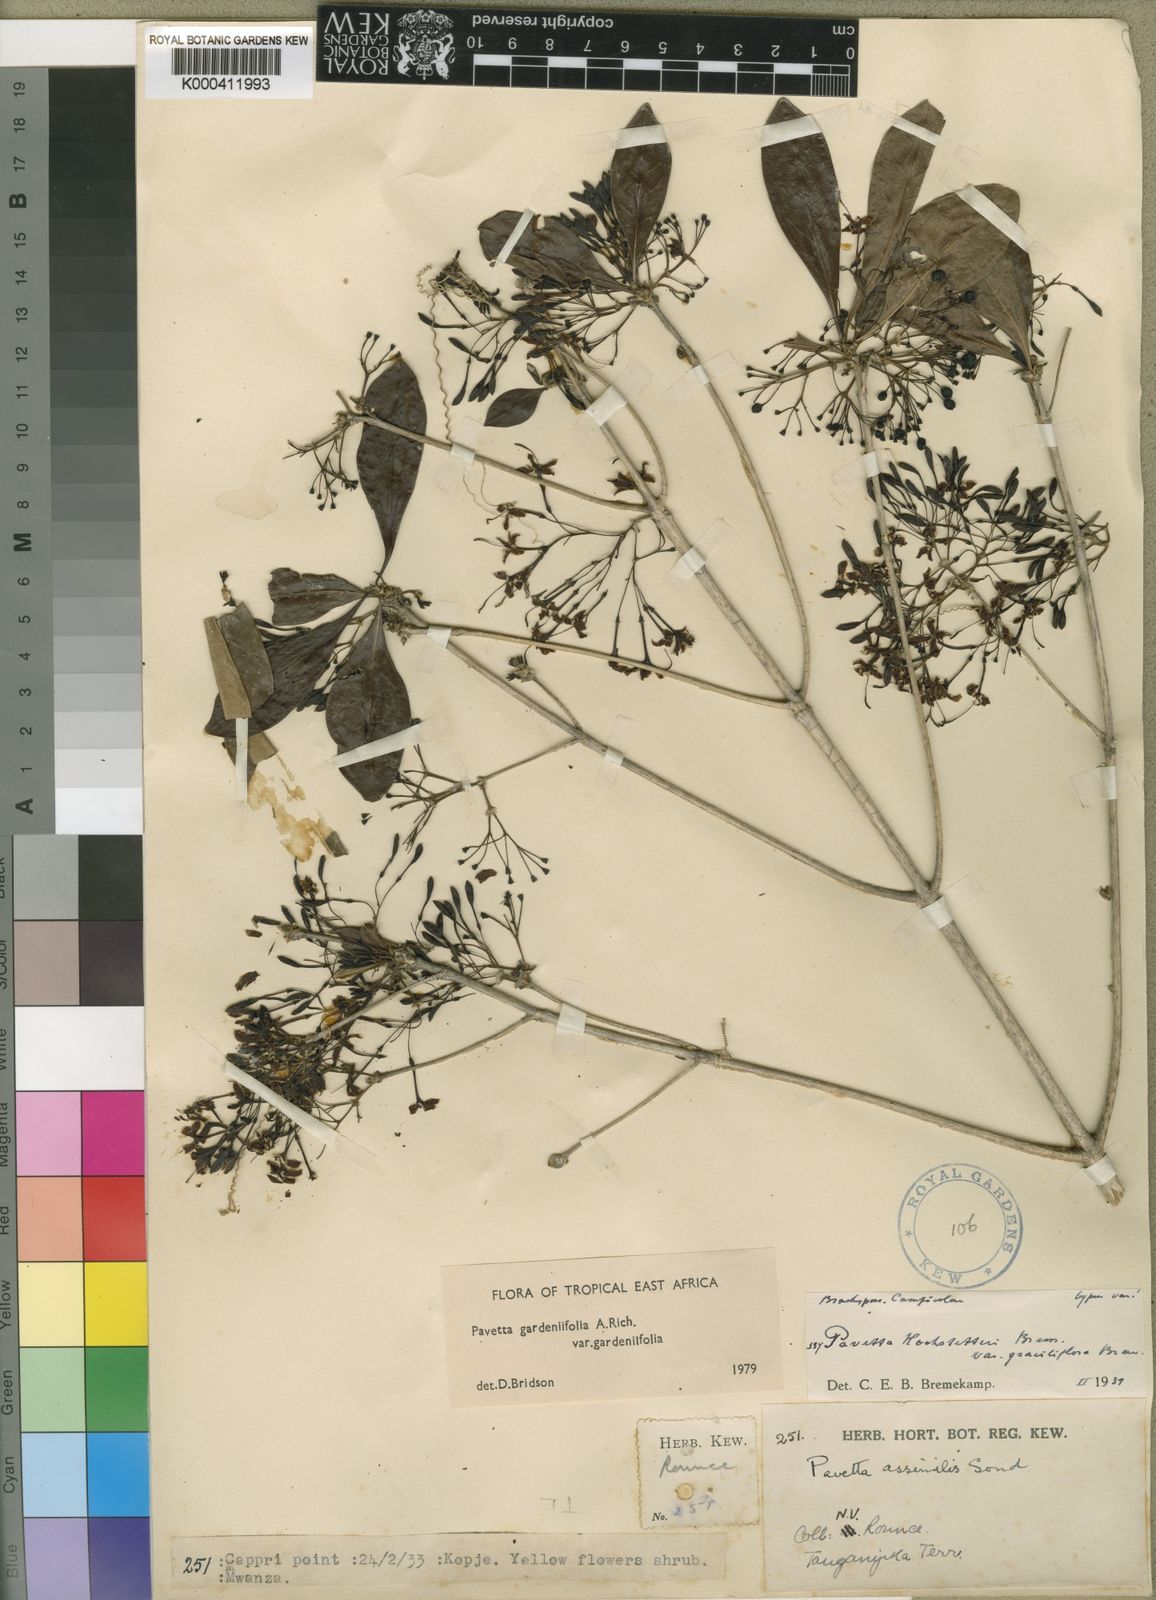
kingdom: Plantae
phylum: Tracheophyta
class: Magnoliopsida
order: Gentianales
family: Rubiaceae
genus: Pavetta
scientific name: Pavetta gardeniifolia
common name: Common brides-bush
